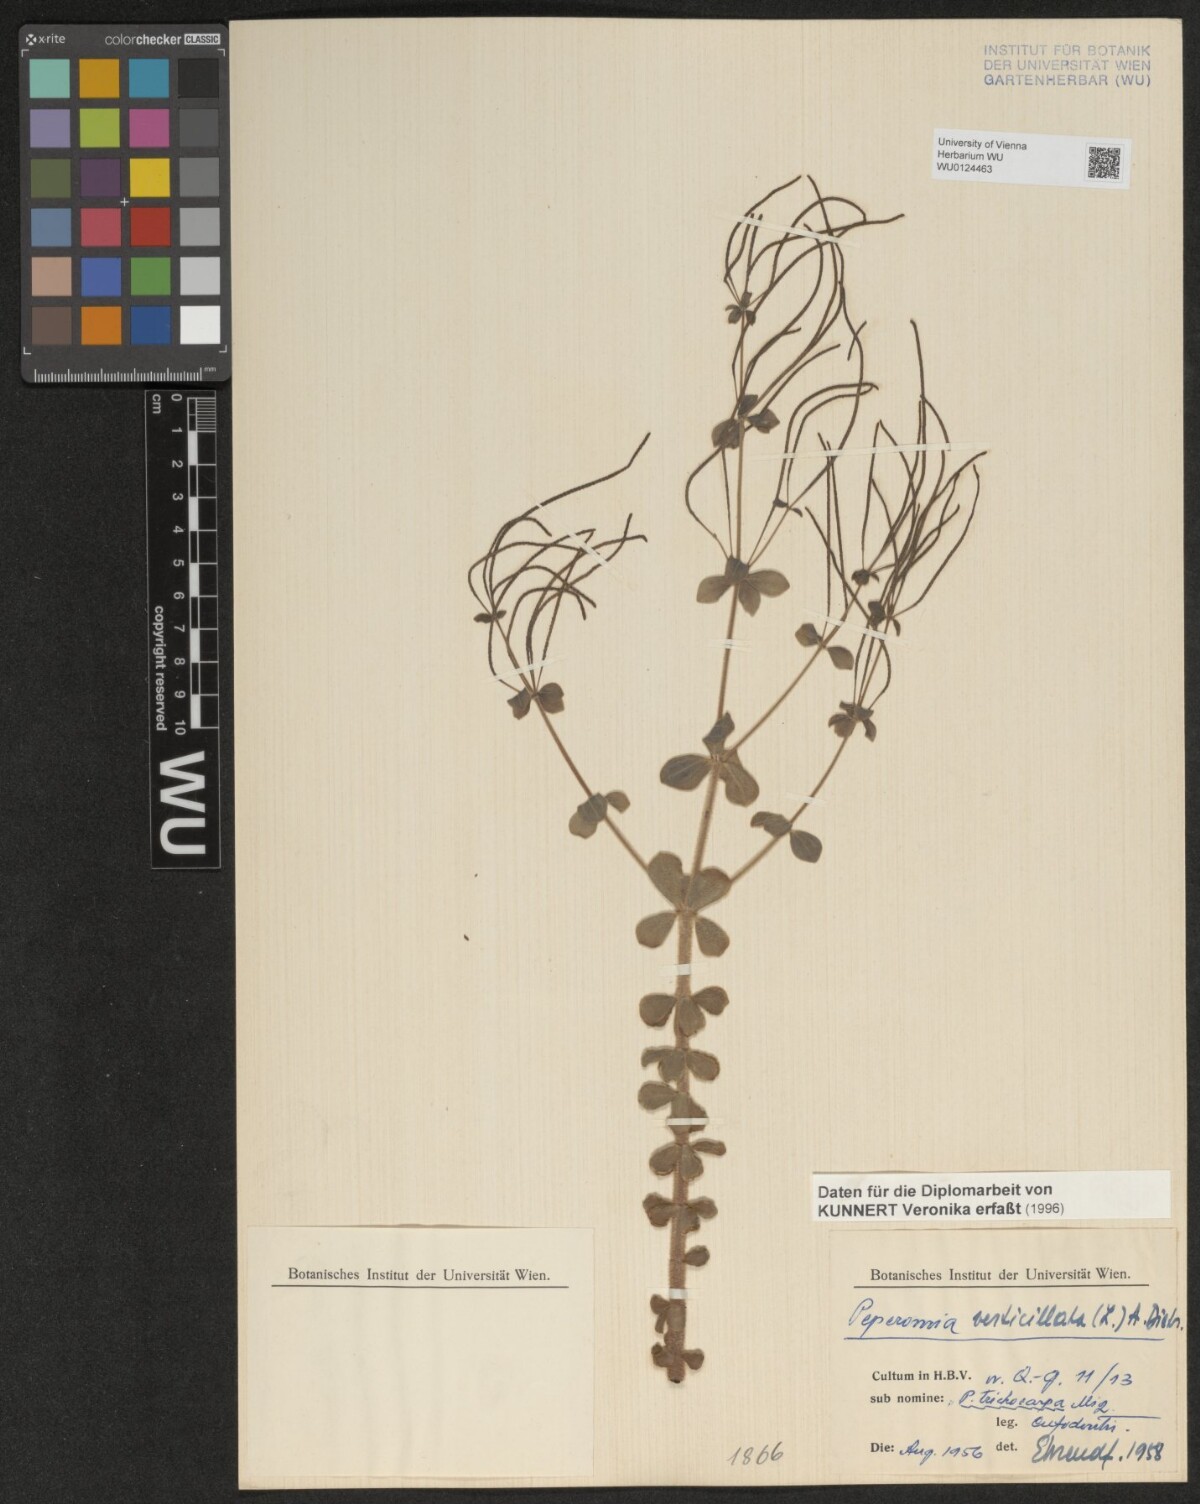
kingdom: Plantae
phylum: Tracheophyta
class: Magnoliopsida
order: Piperales
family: Piperaceae
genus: Peperomia
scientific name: Peperomia verticillata
